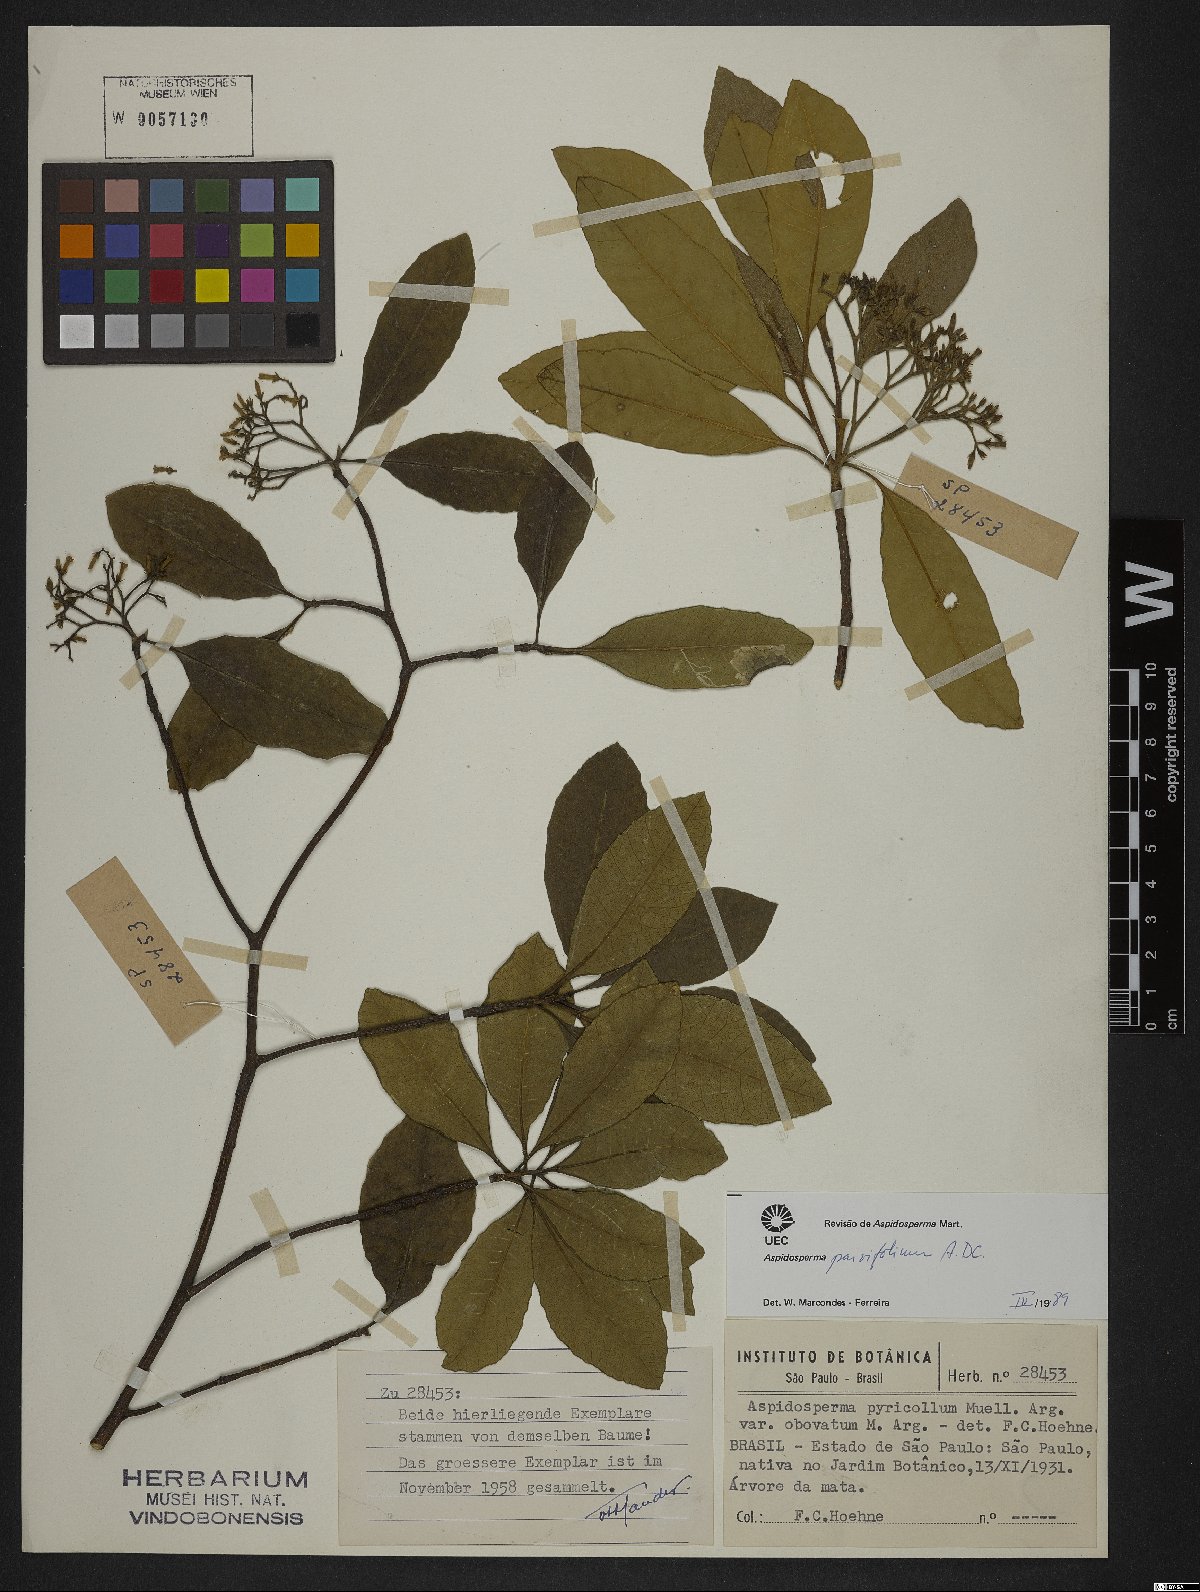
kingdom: Plantae
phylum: Tracheophyta
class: Magnoliopsida
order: Gentianales
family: Apocynaceae
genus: Aspidosperma
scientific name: Aspidosperma parvifolium
